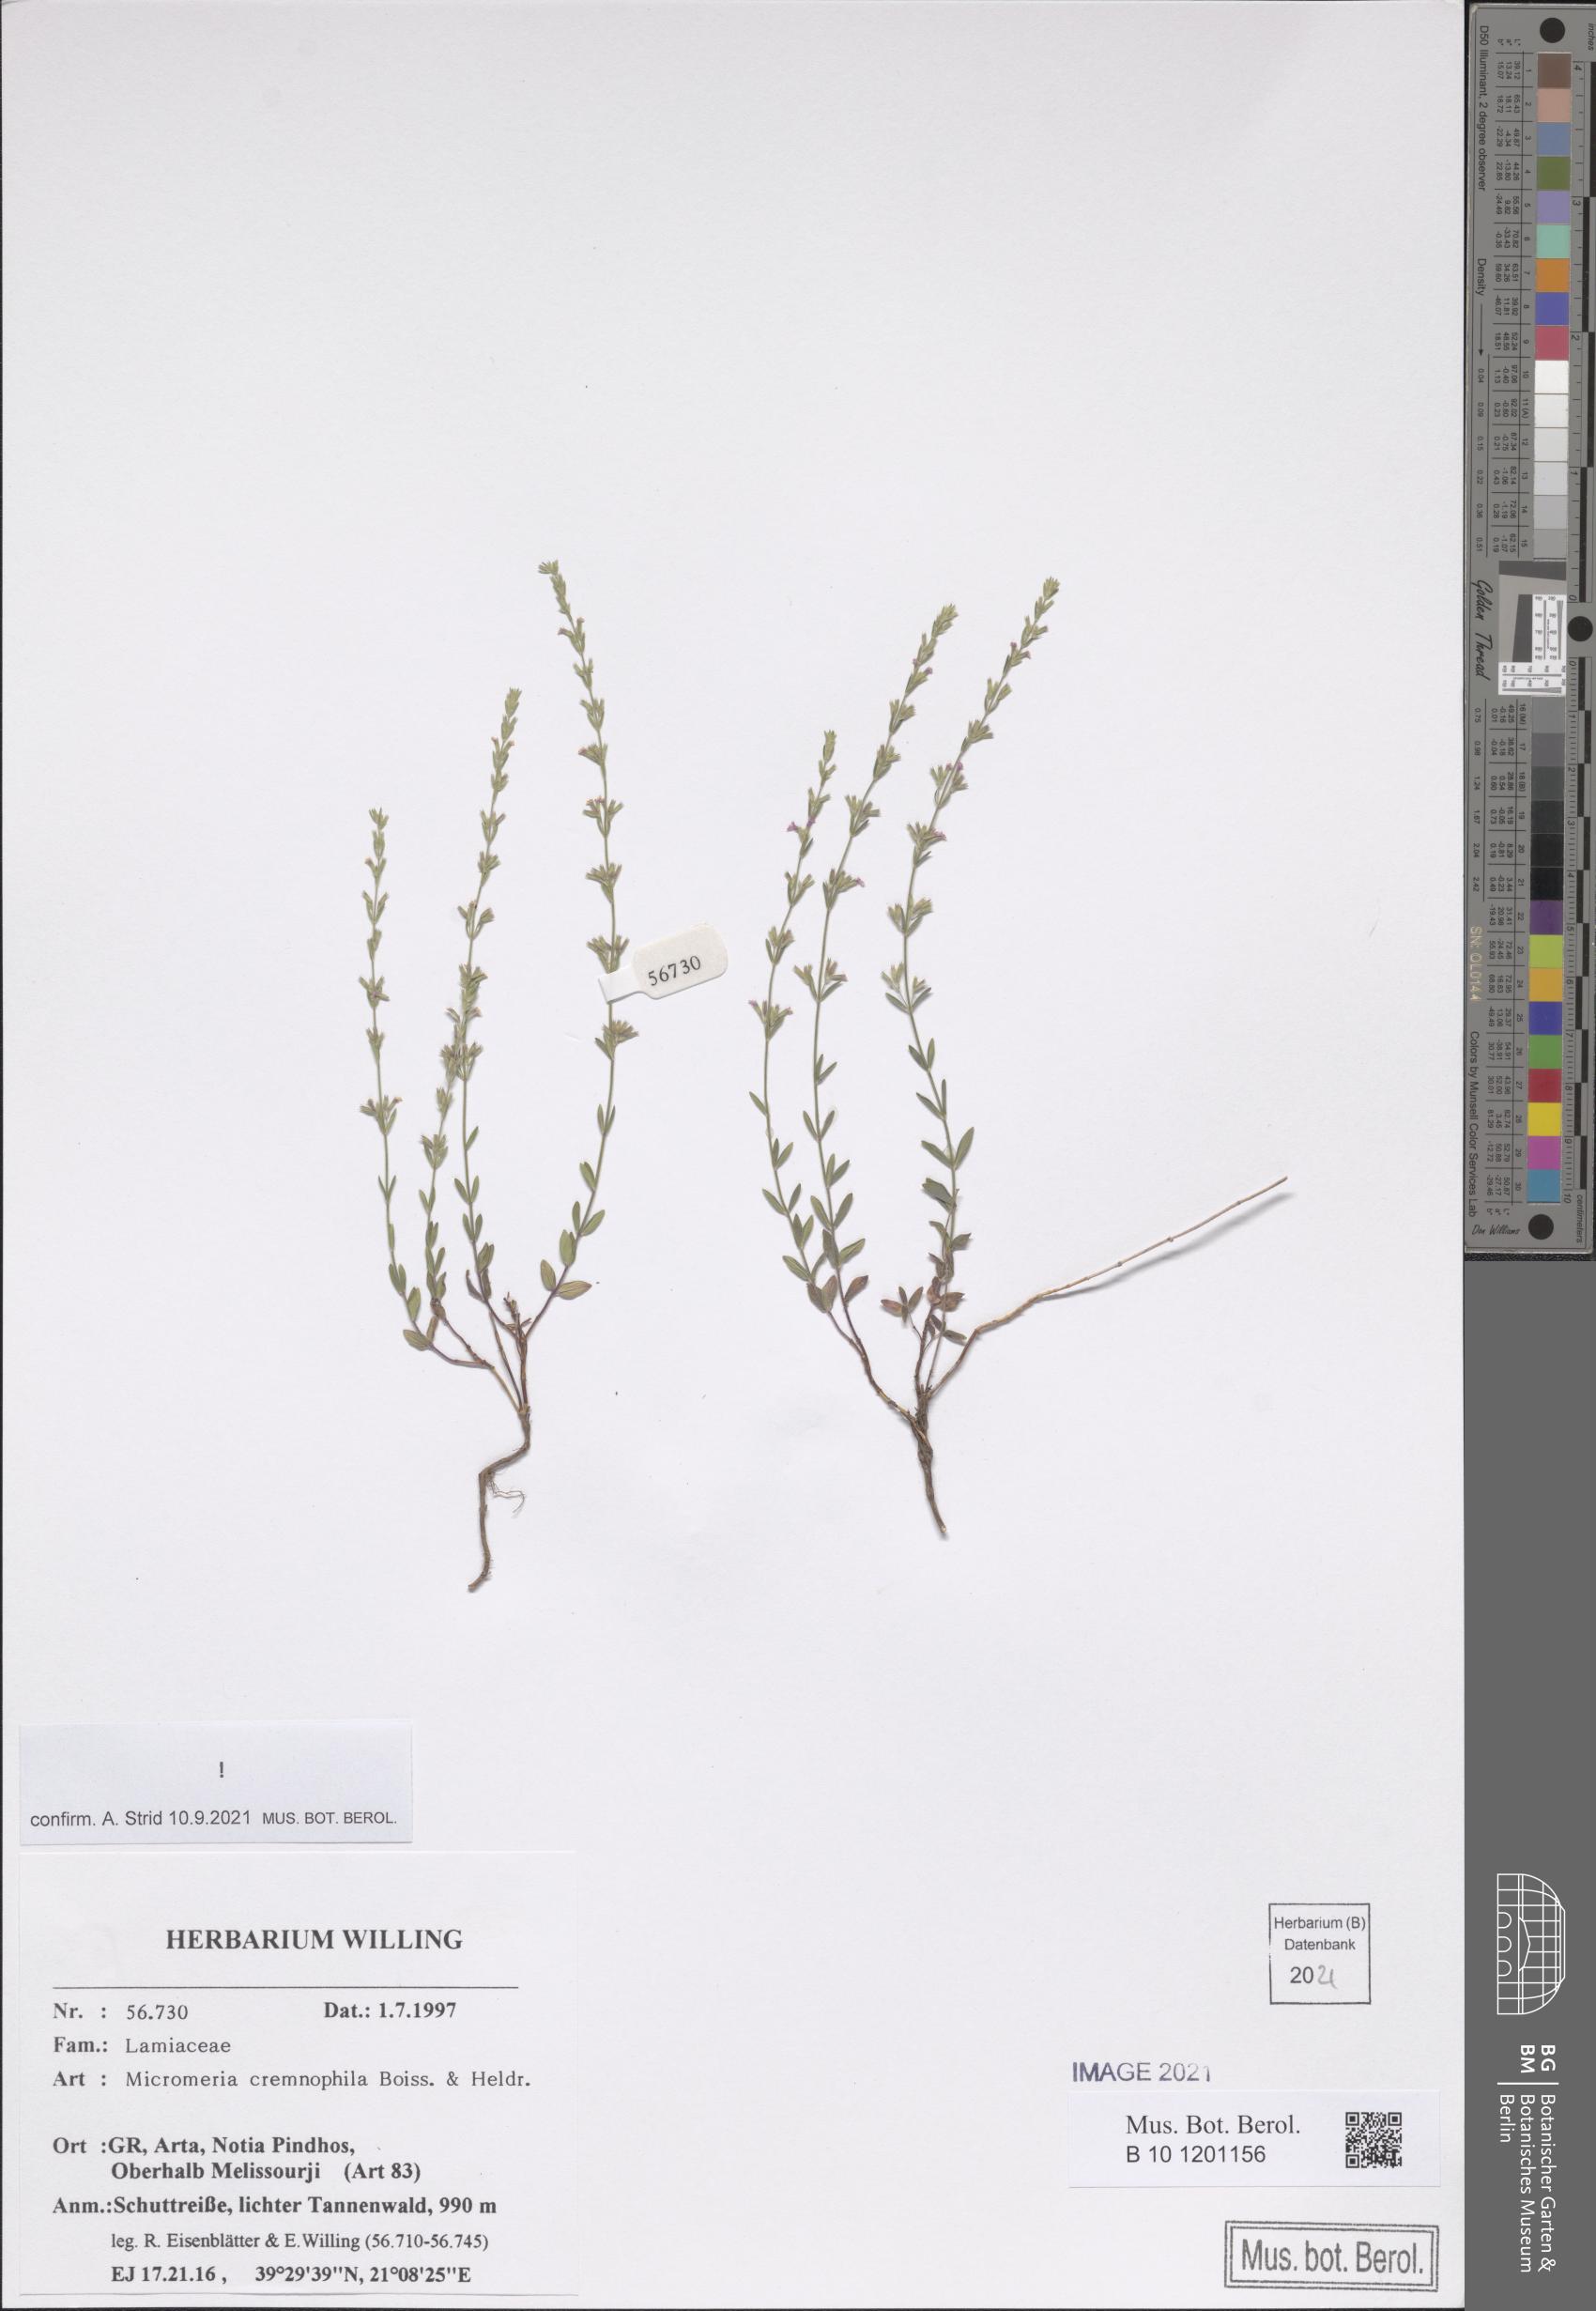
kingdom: Plantae
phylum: Tracheophyta
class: Magnoliopsida
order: Lamiales
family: Lamiaceae
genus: Micromeria
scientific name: Micromeria cremnophila
